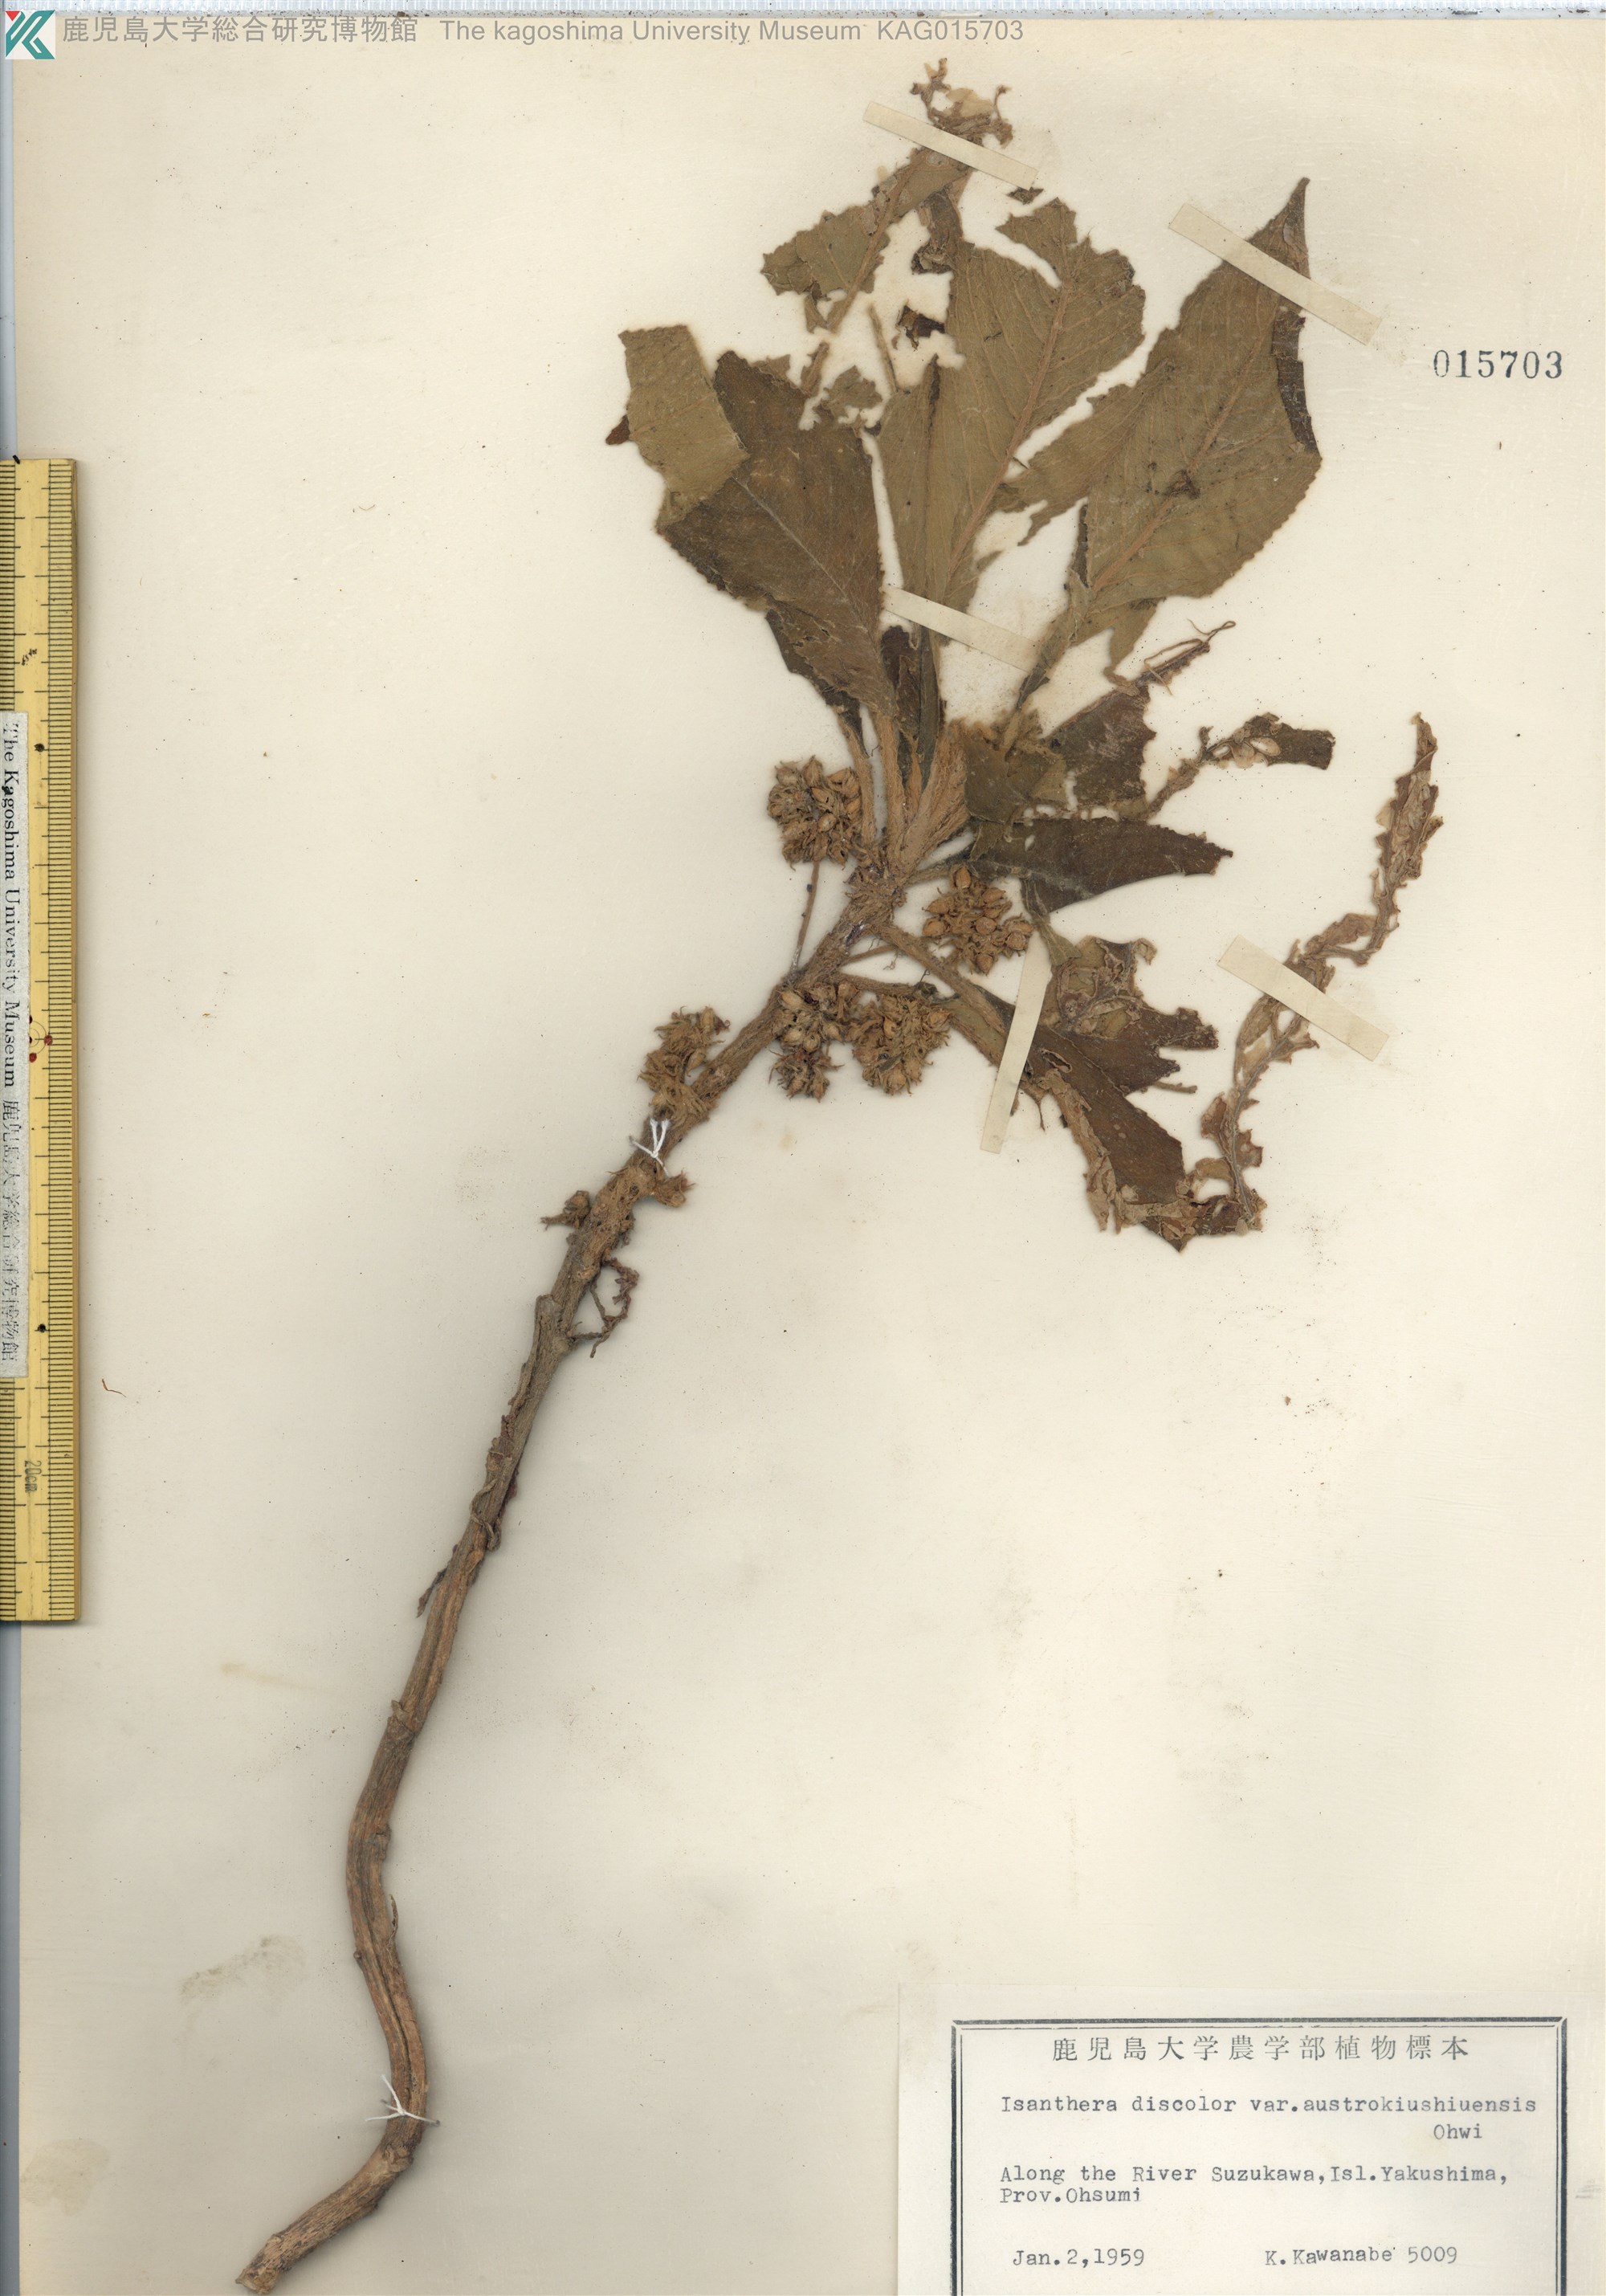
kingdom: Plantae
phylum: Tracheophyta
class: Magnoliopsida
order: Lamiales
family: Gesneriaceae
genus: Rhynchotechum
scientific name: Rhynchotechum discolor
